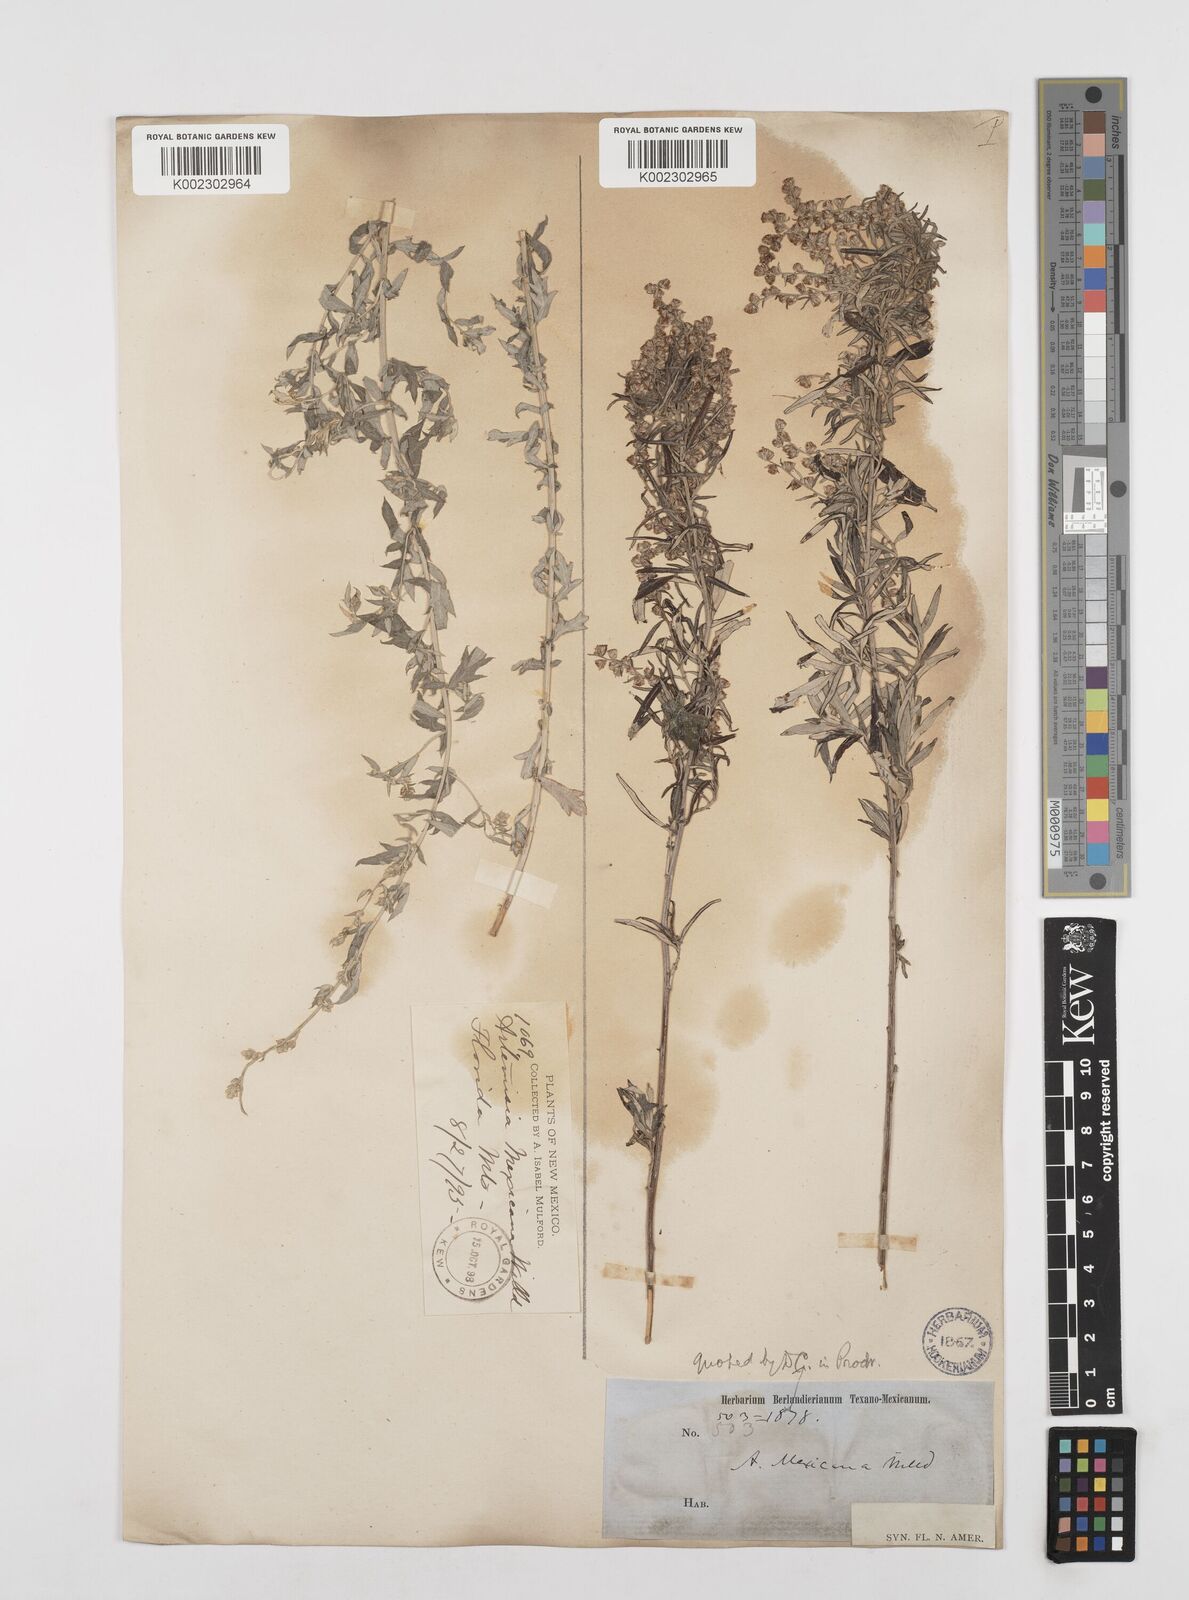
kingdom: Plantae
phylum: Tracheophyta
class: Magnoliopsida
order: Asterales
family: Asteraceae
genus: Artemisia
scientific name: Artemisia ludoviciana
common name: Western mugwort
